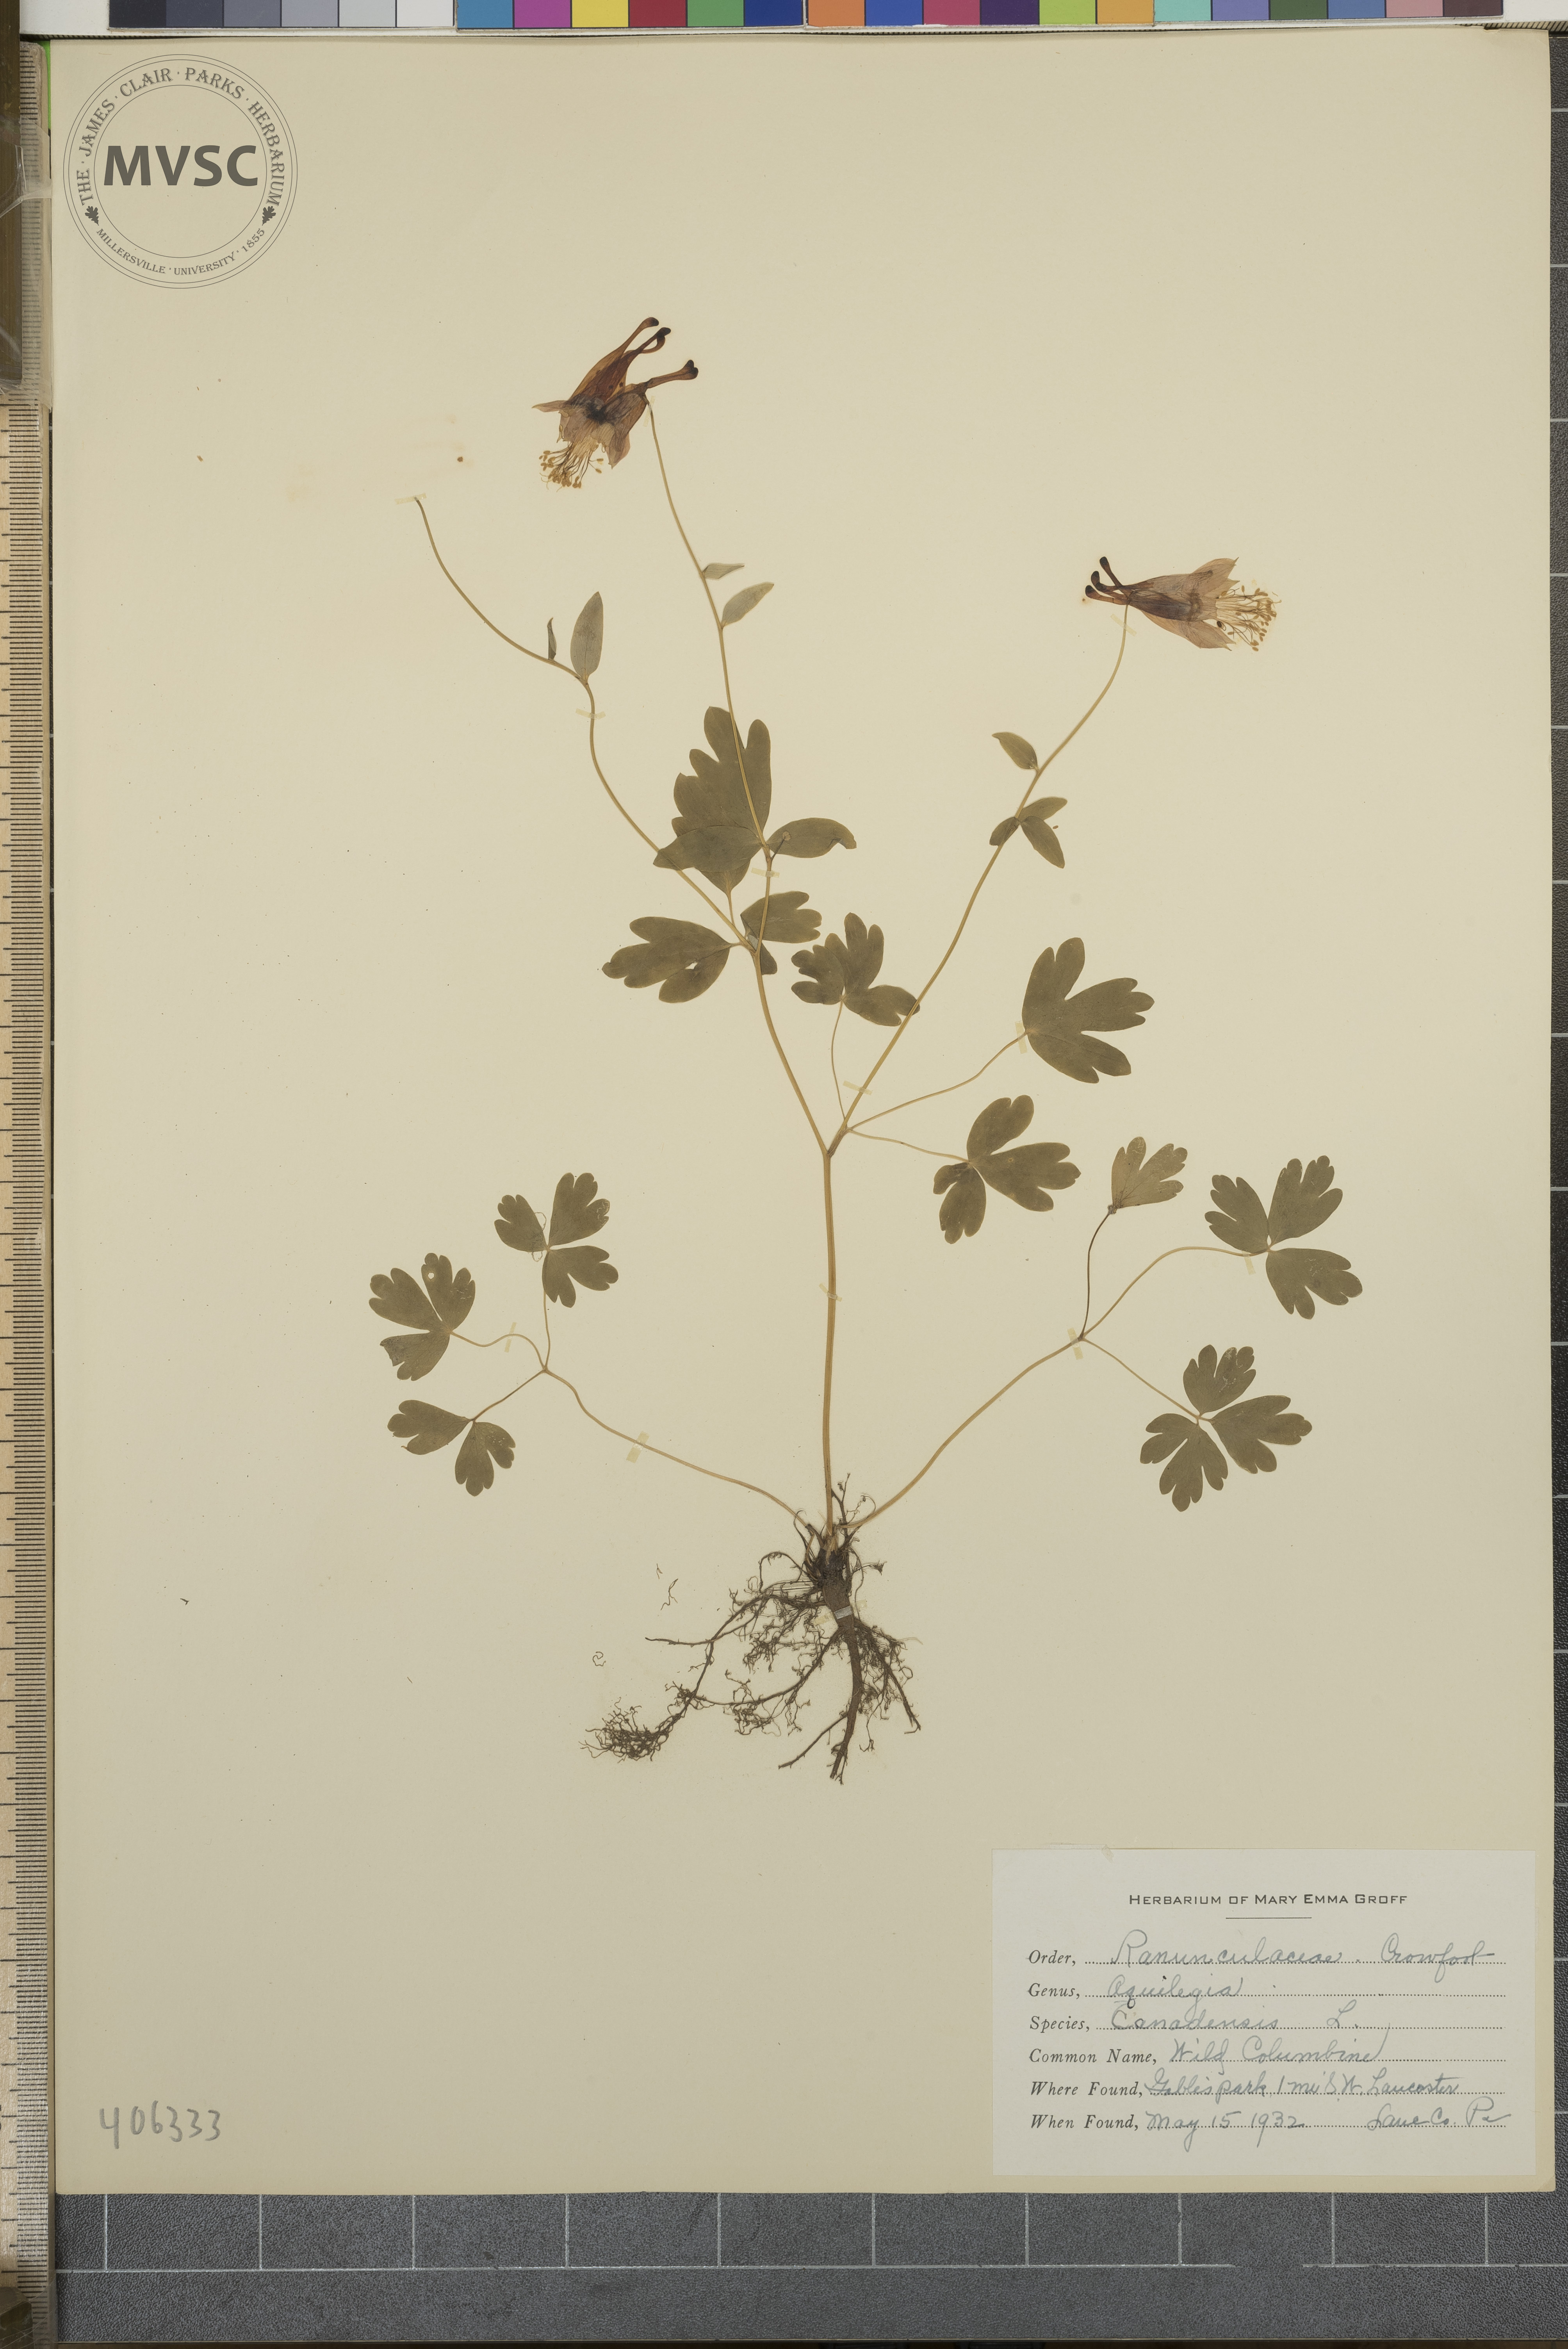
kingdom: Plantae
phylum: Tracheophyta
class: Magnoliopsida
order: Ranunculales
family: Ranunculaceae
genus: Aquilegia
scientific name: Aquilegia canadensis
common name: Wild Columbine
